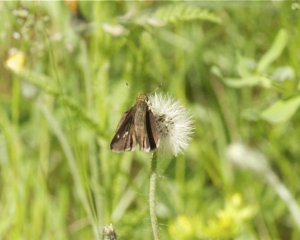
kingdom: Animalia
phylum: Arthropoda
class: Insecta
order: Lepidoptera
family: Hesperiidae
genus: Euphyes
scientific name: Euphyes vestris
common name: Dun Skipper
